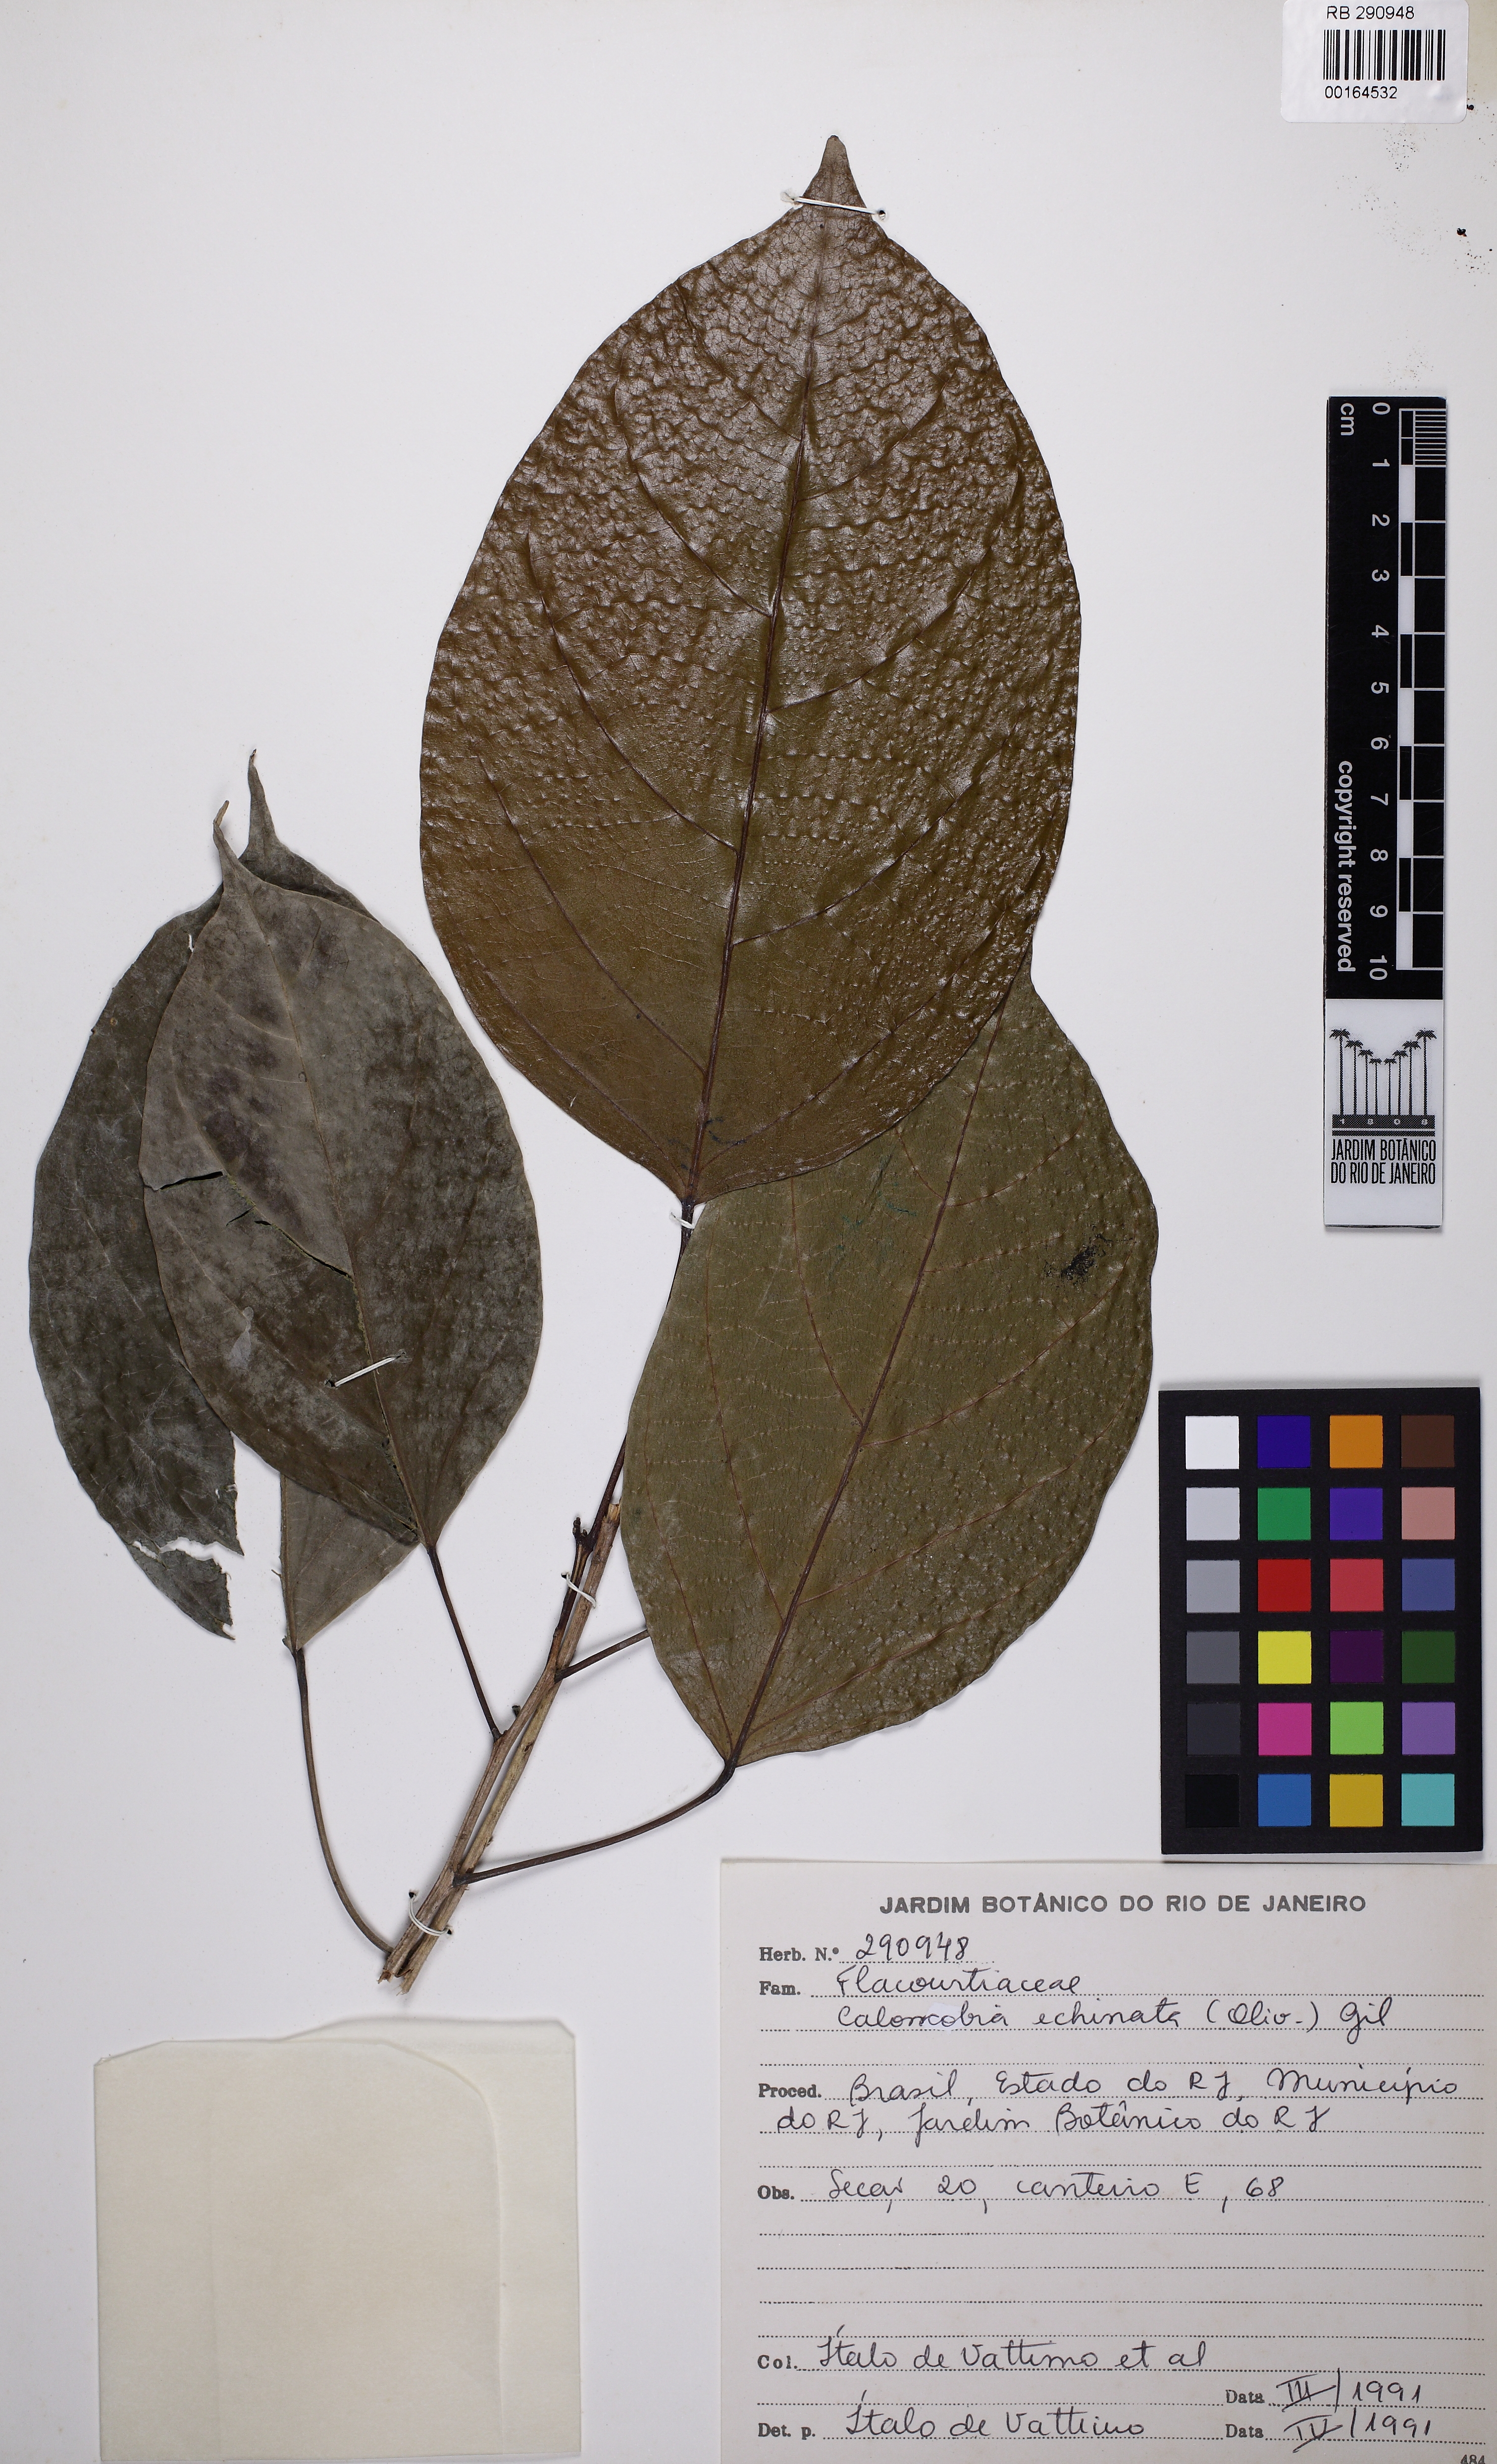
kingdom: Plantae
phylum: Tracheophyta
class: Magnoliopsida
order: Malpighiales
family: Achariaceae
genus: Caloncoba
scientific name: Caloncoba echinata
